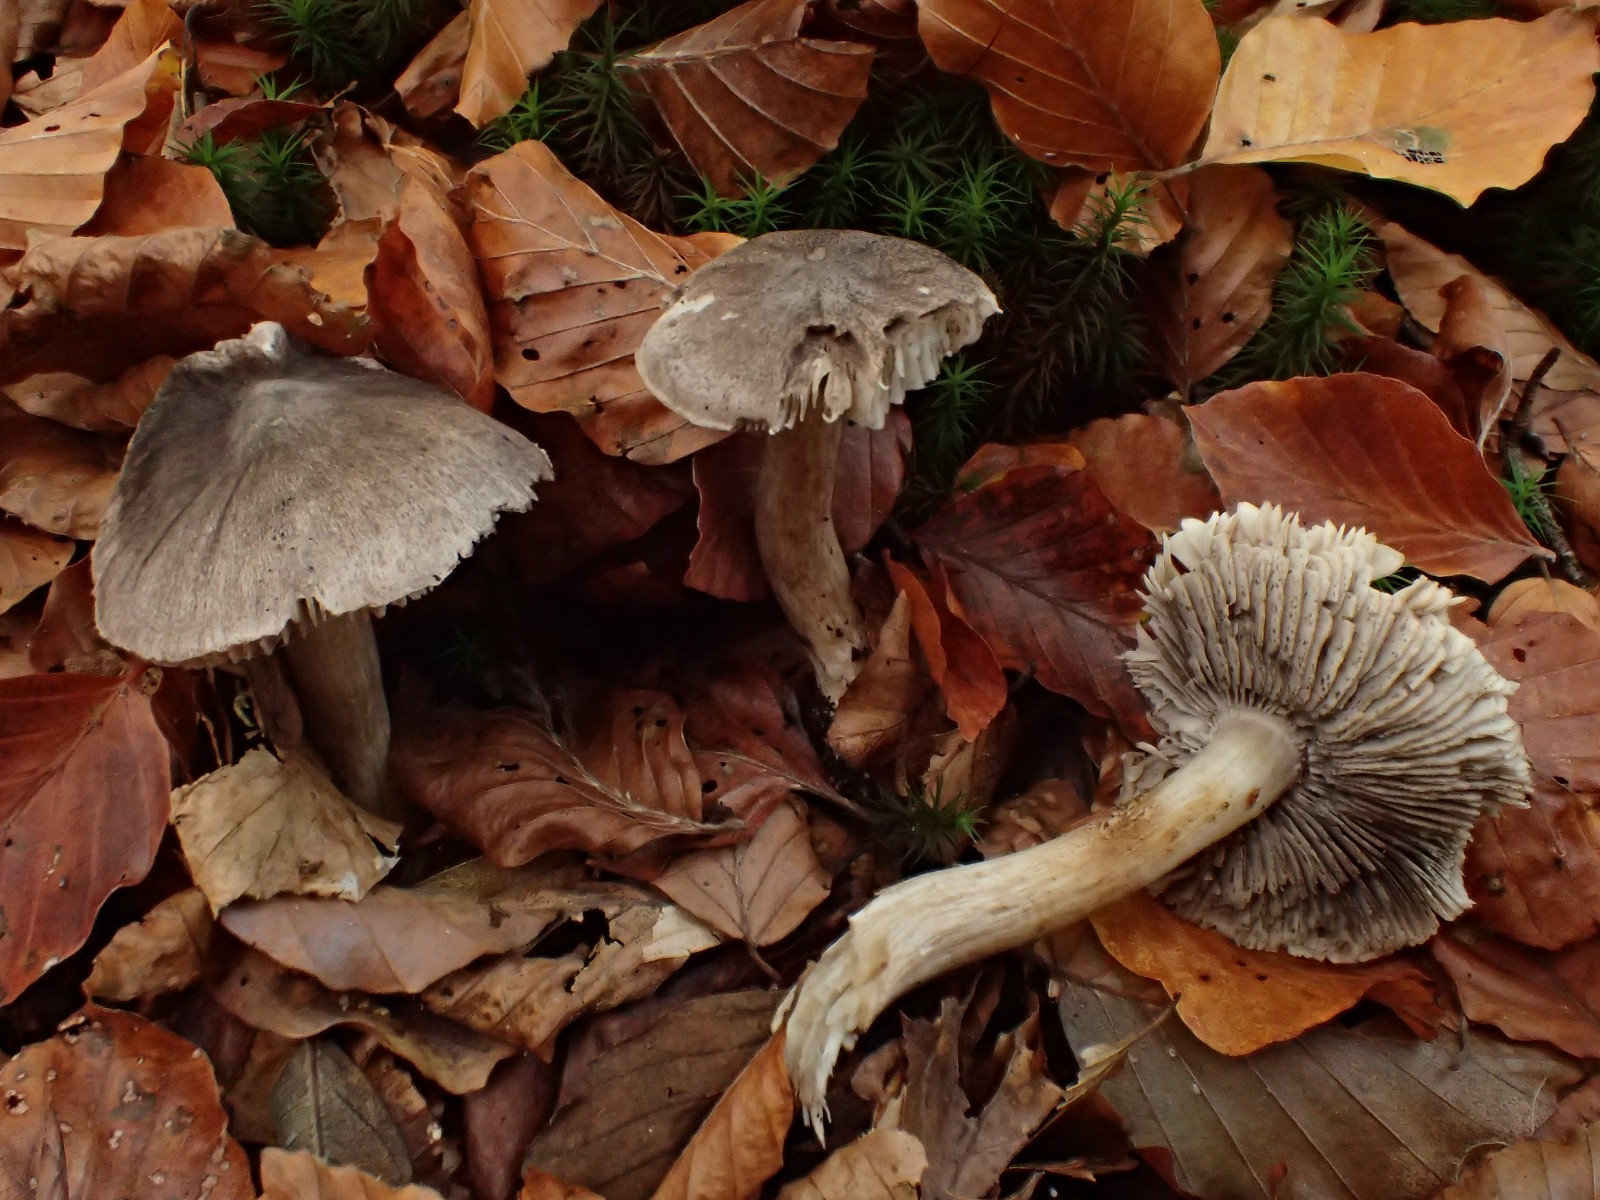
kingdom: Fungi
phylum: Basidiomycota
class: Agaricomycetes
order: Agaricales
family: Tricholomataceae
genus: Tricholoma
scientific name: Tricholoma sciodes
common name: stribet ridderhat
